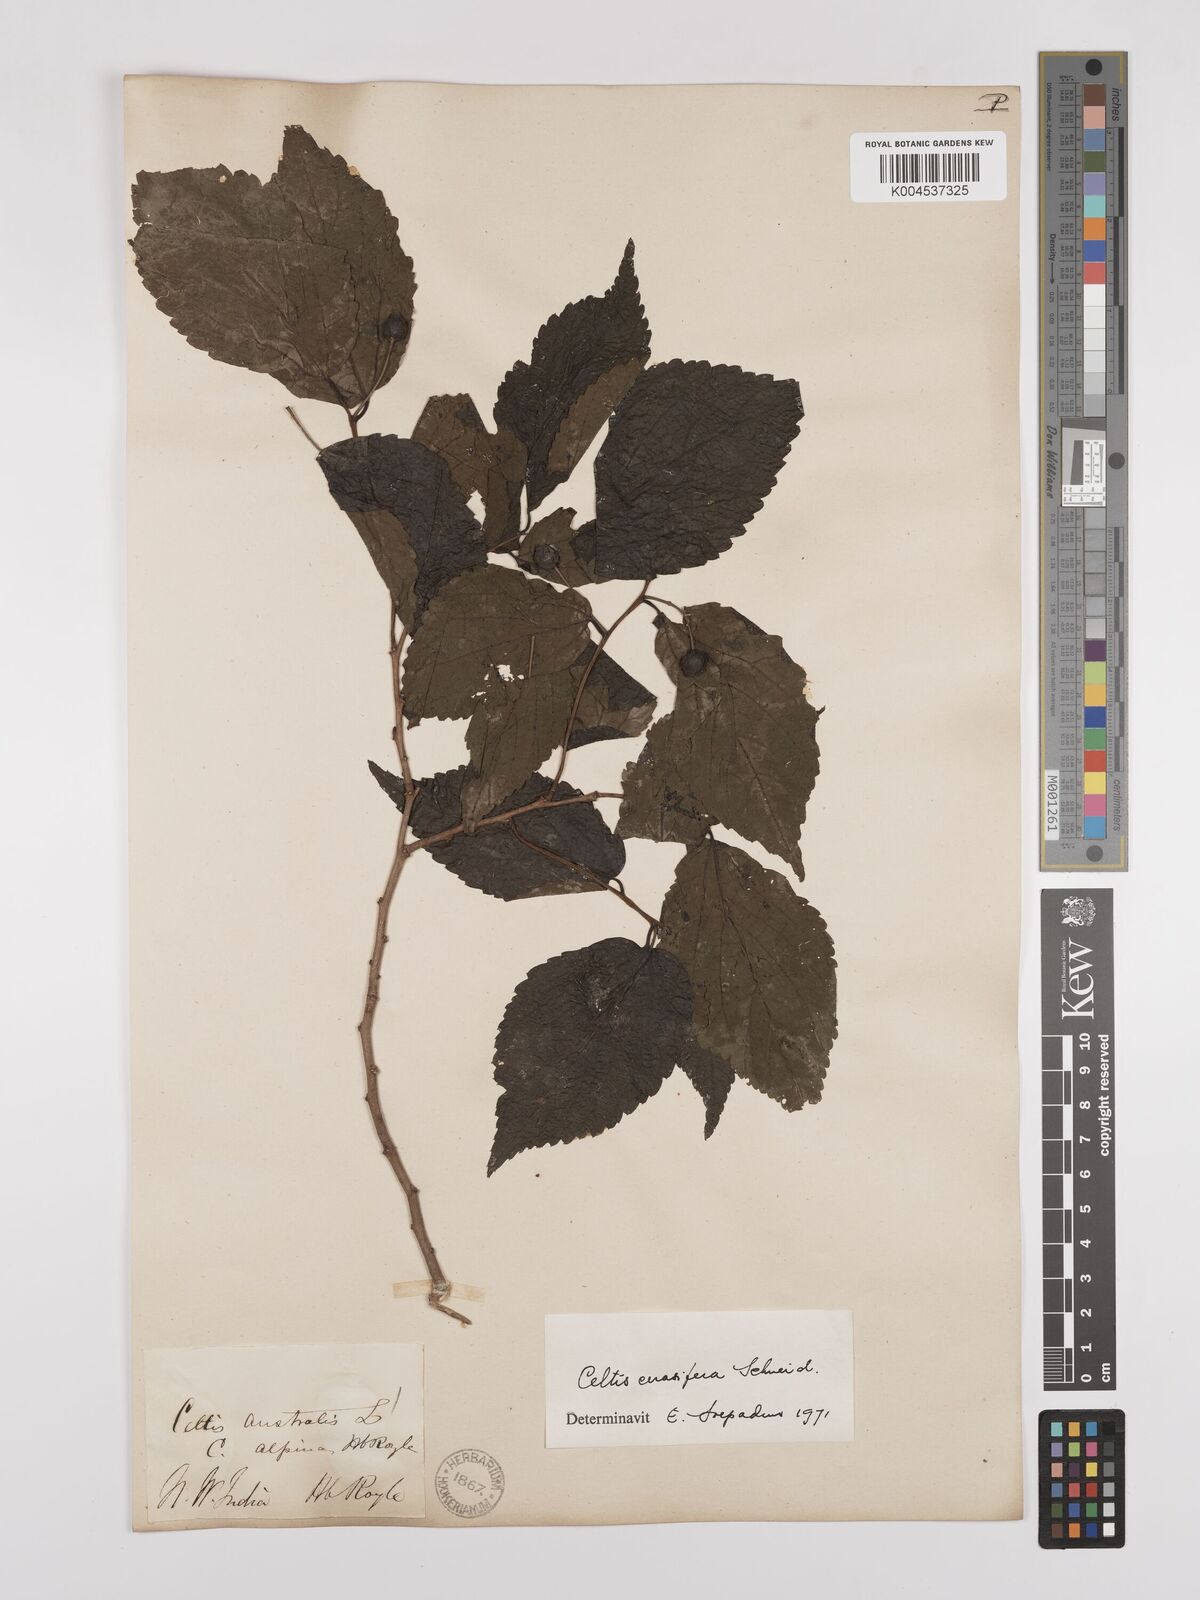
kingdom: Plantae
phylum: Tracheophyta
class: Magnoliopsida
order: Rosales
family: Cannabaceae
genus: Celtis
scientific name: Celtis cerasifera
